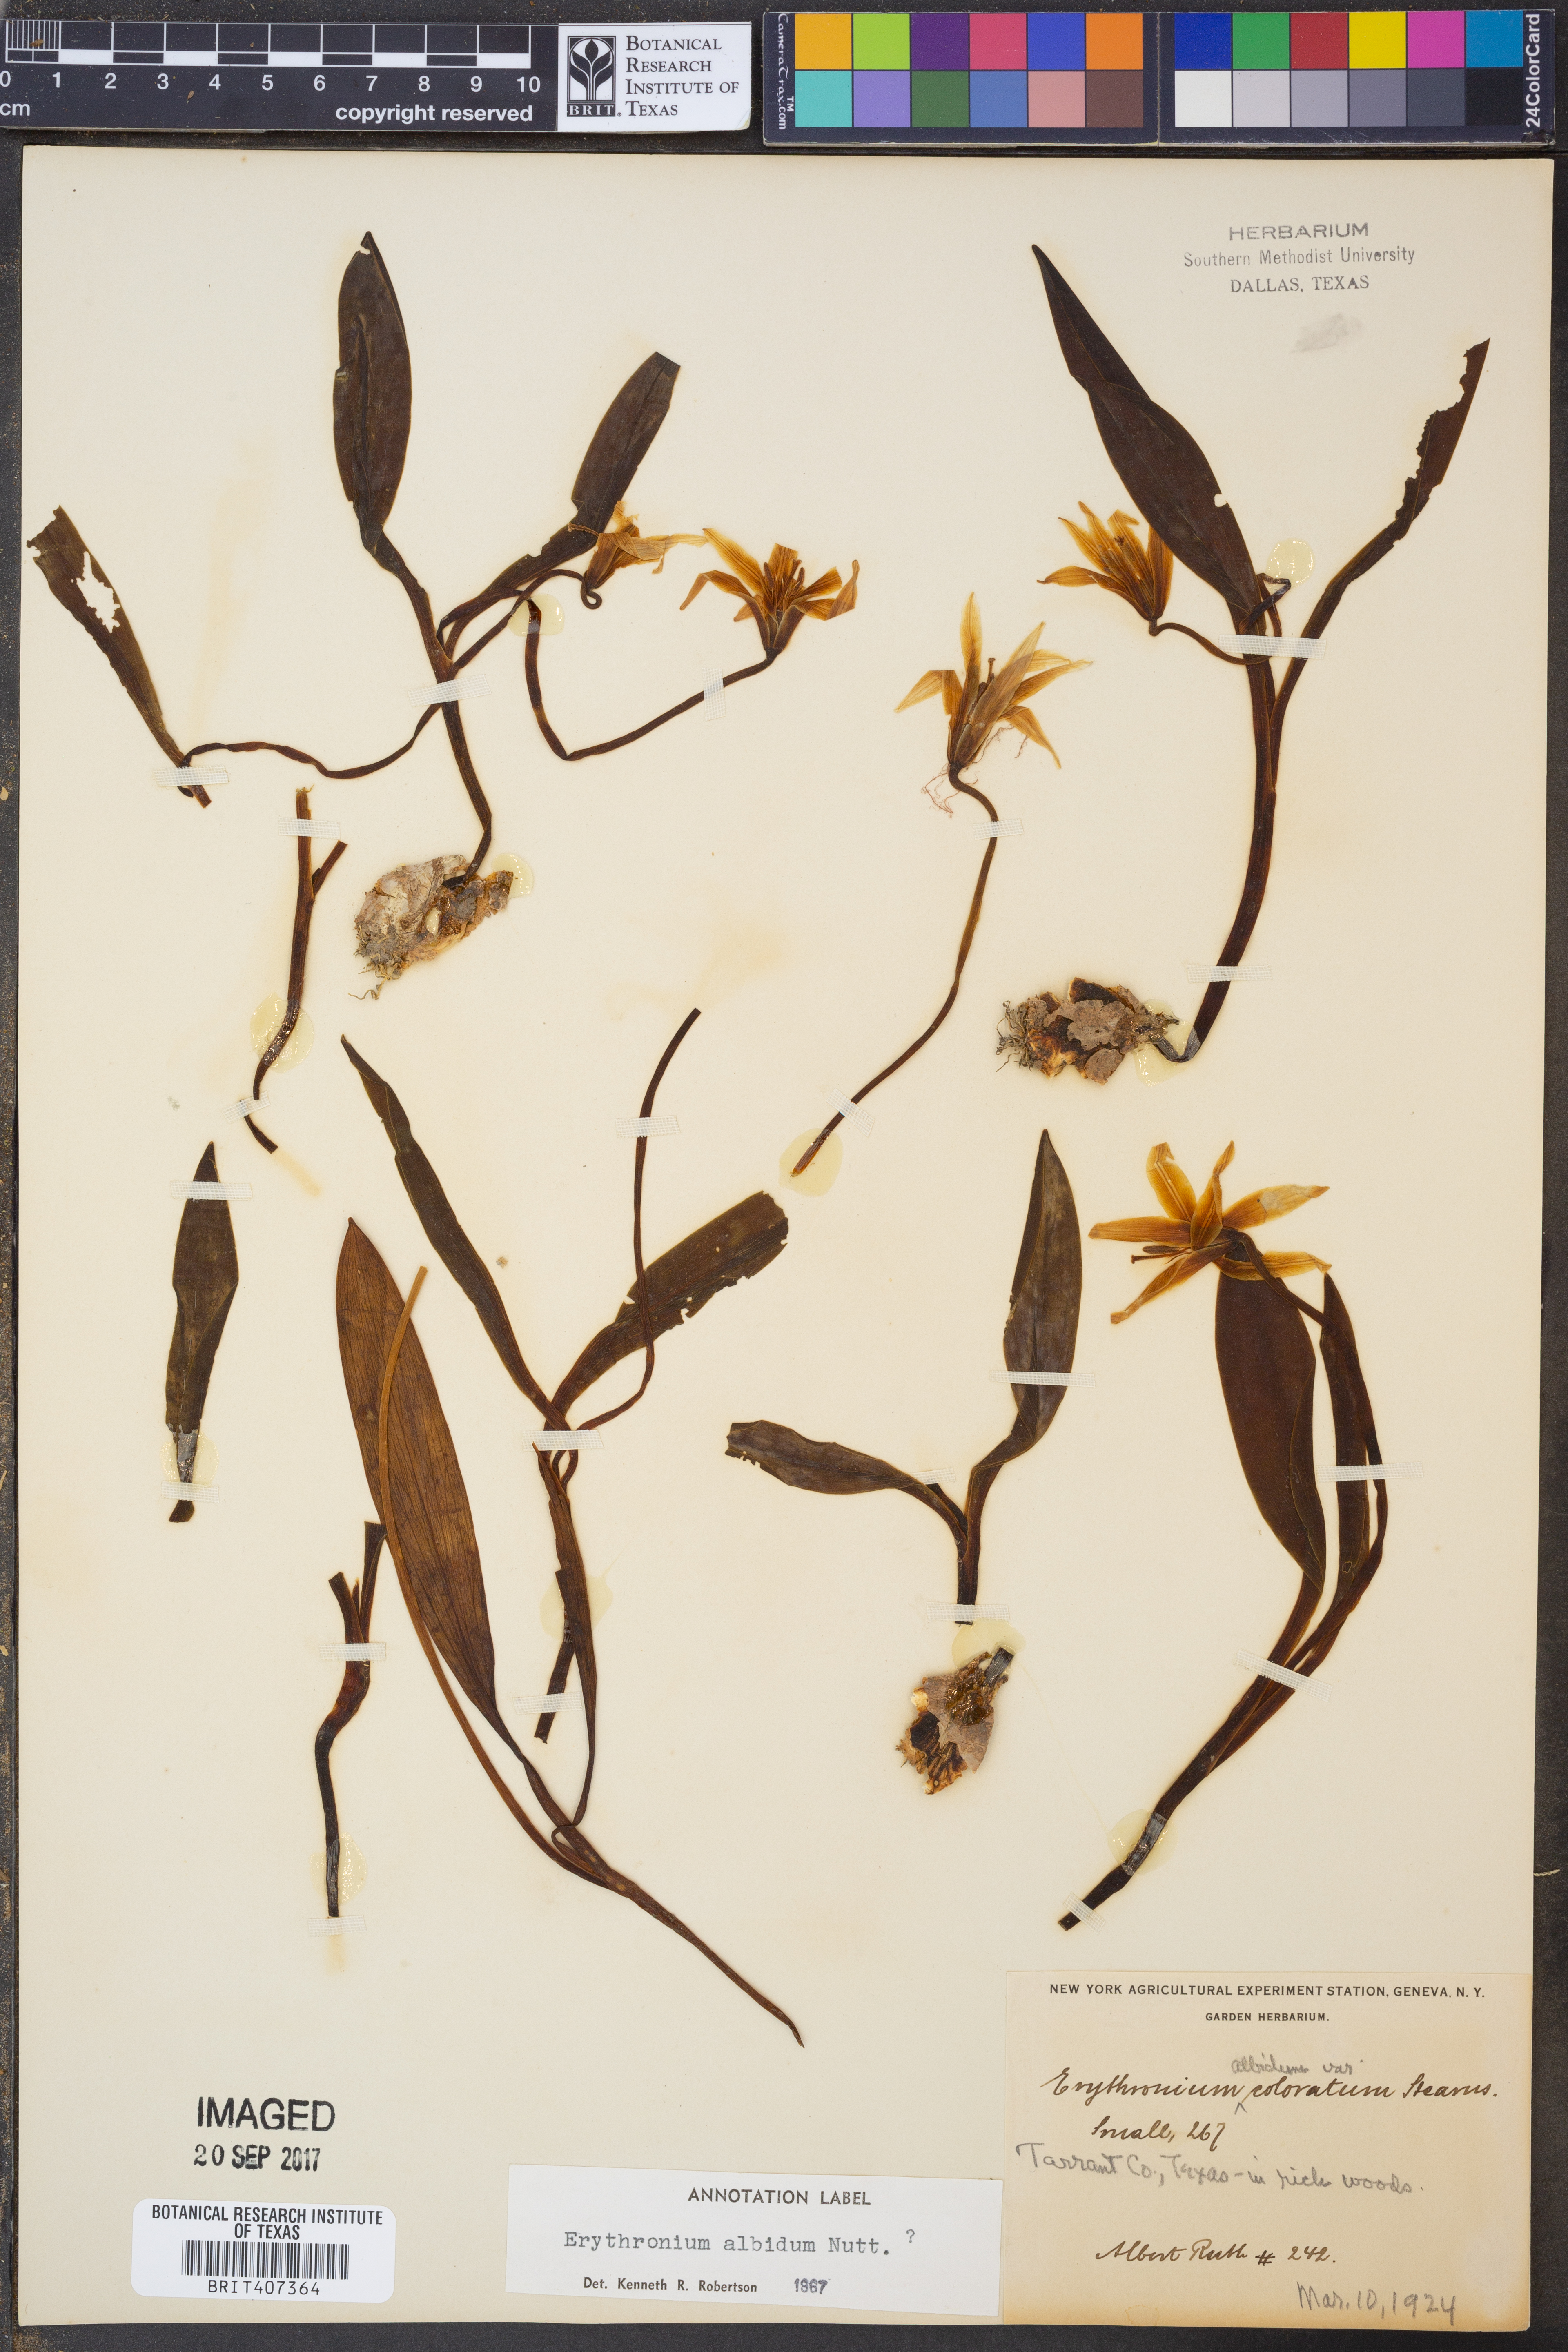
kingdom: Plantae
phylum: Tracheophyta
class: Liliopsida
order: Liliales
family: Liliaceae
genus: Erythronium
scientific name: Erythronium albidum
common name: White trout-lily
